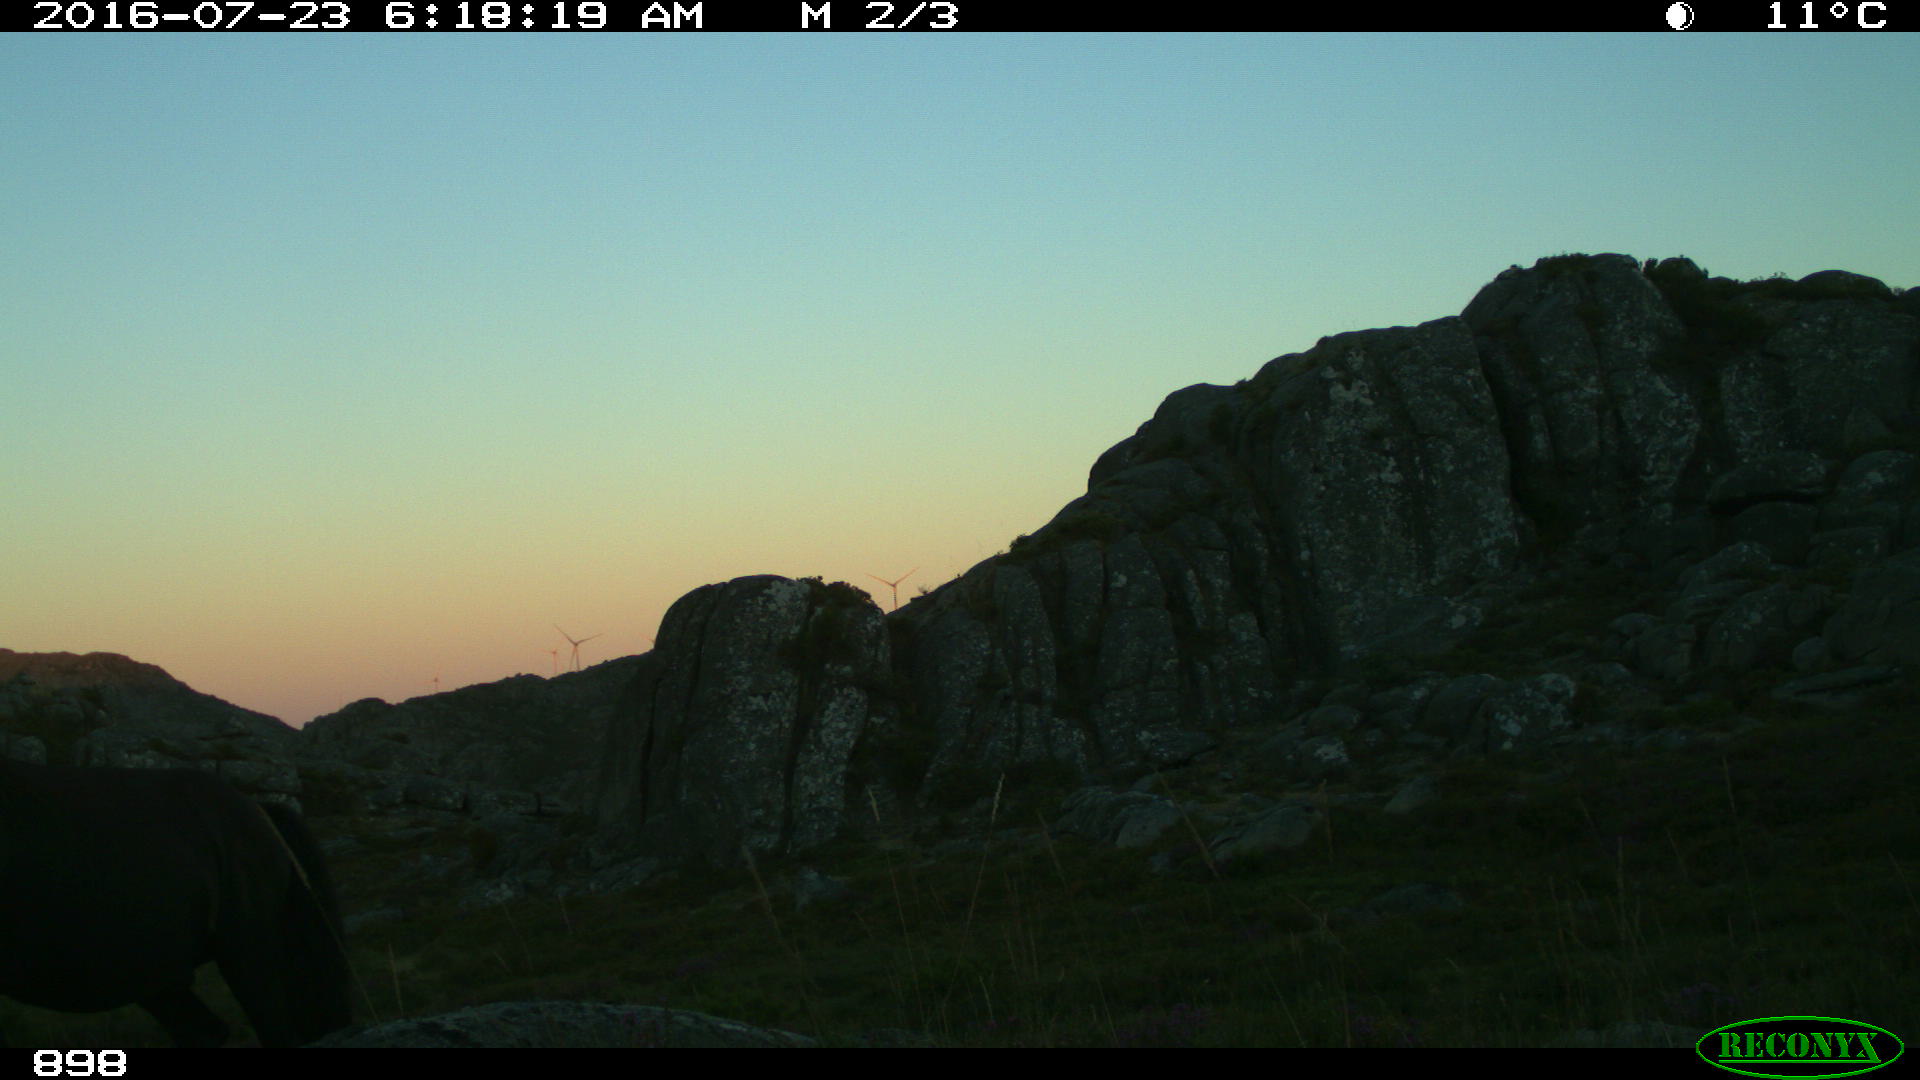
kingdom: Animalia
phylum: Chordata
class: Mammalia
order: Perissodactyla
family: Equidae
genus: Equus
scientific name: Equus caballus
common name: Horse
